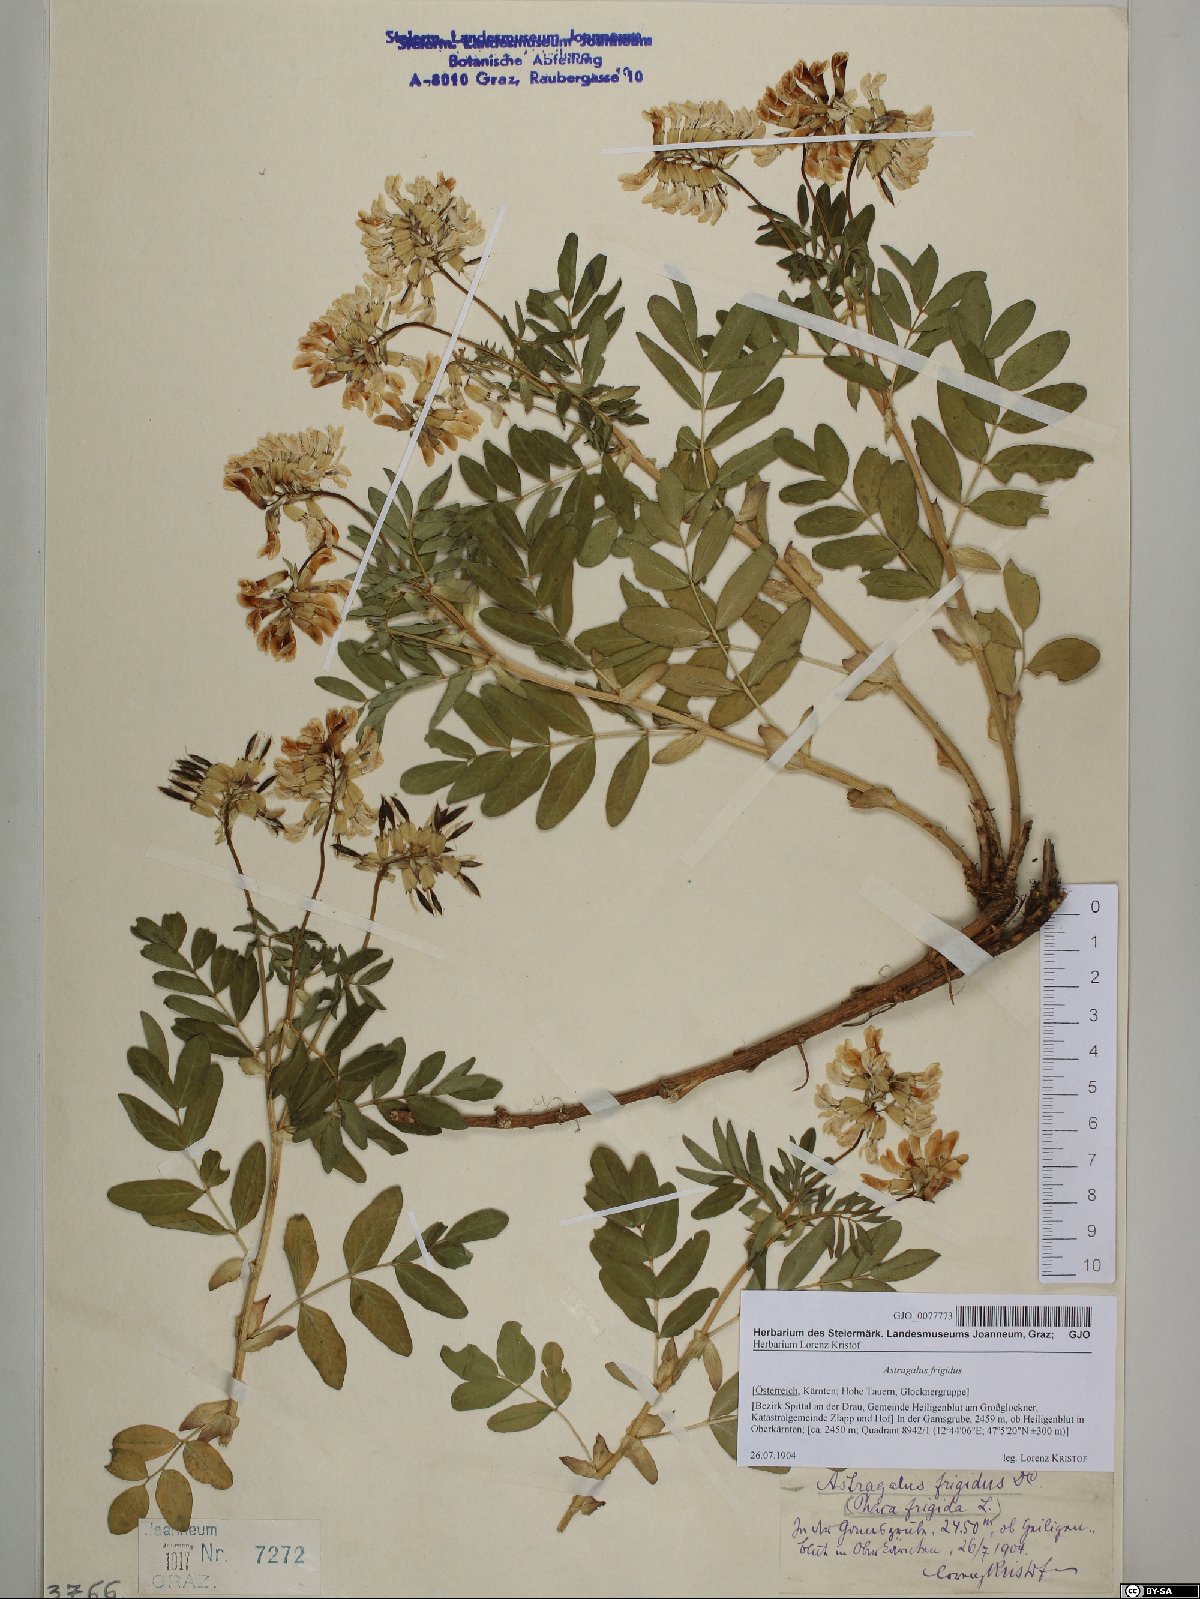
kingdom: Plantae
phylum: Tracheophyta
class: Magnoliopsida
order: Fabales
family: Fabaceae
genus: Astragalus
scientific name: Astragalus frigidus
